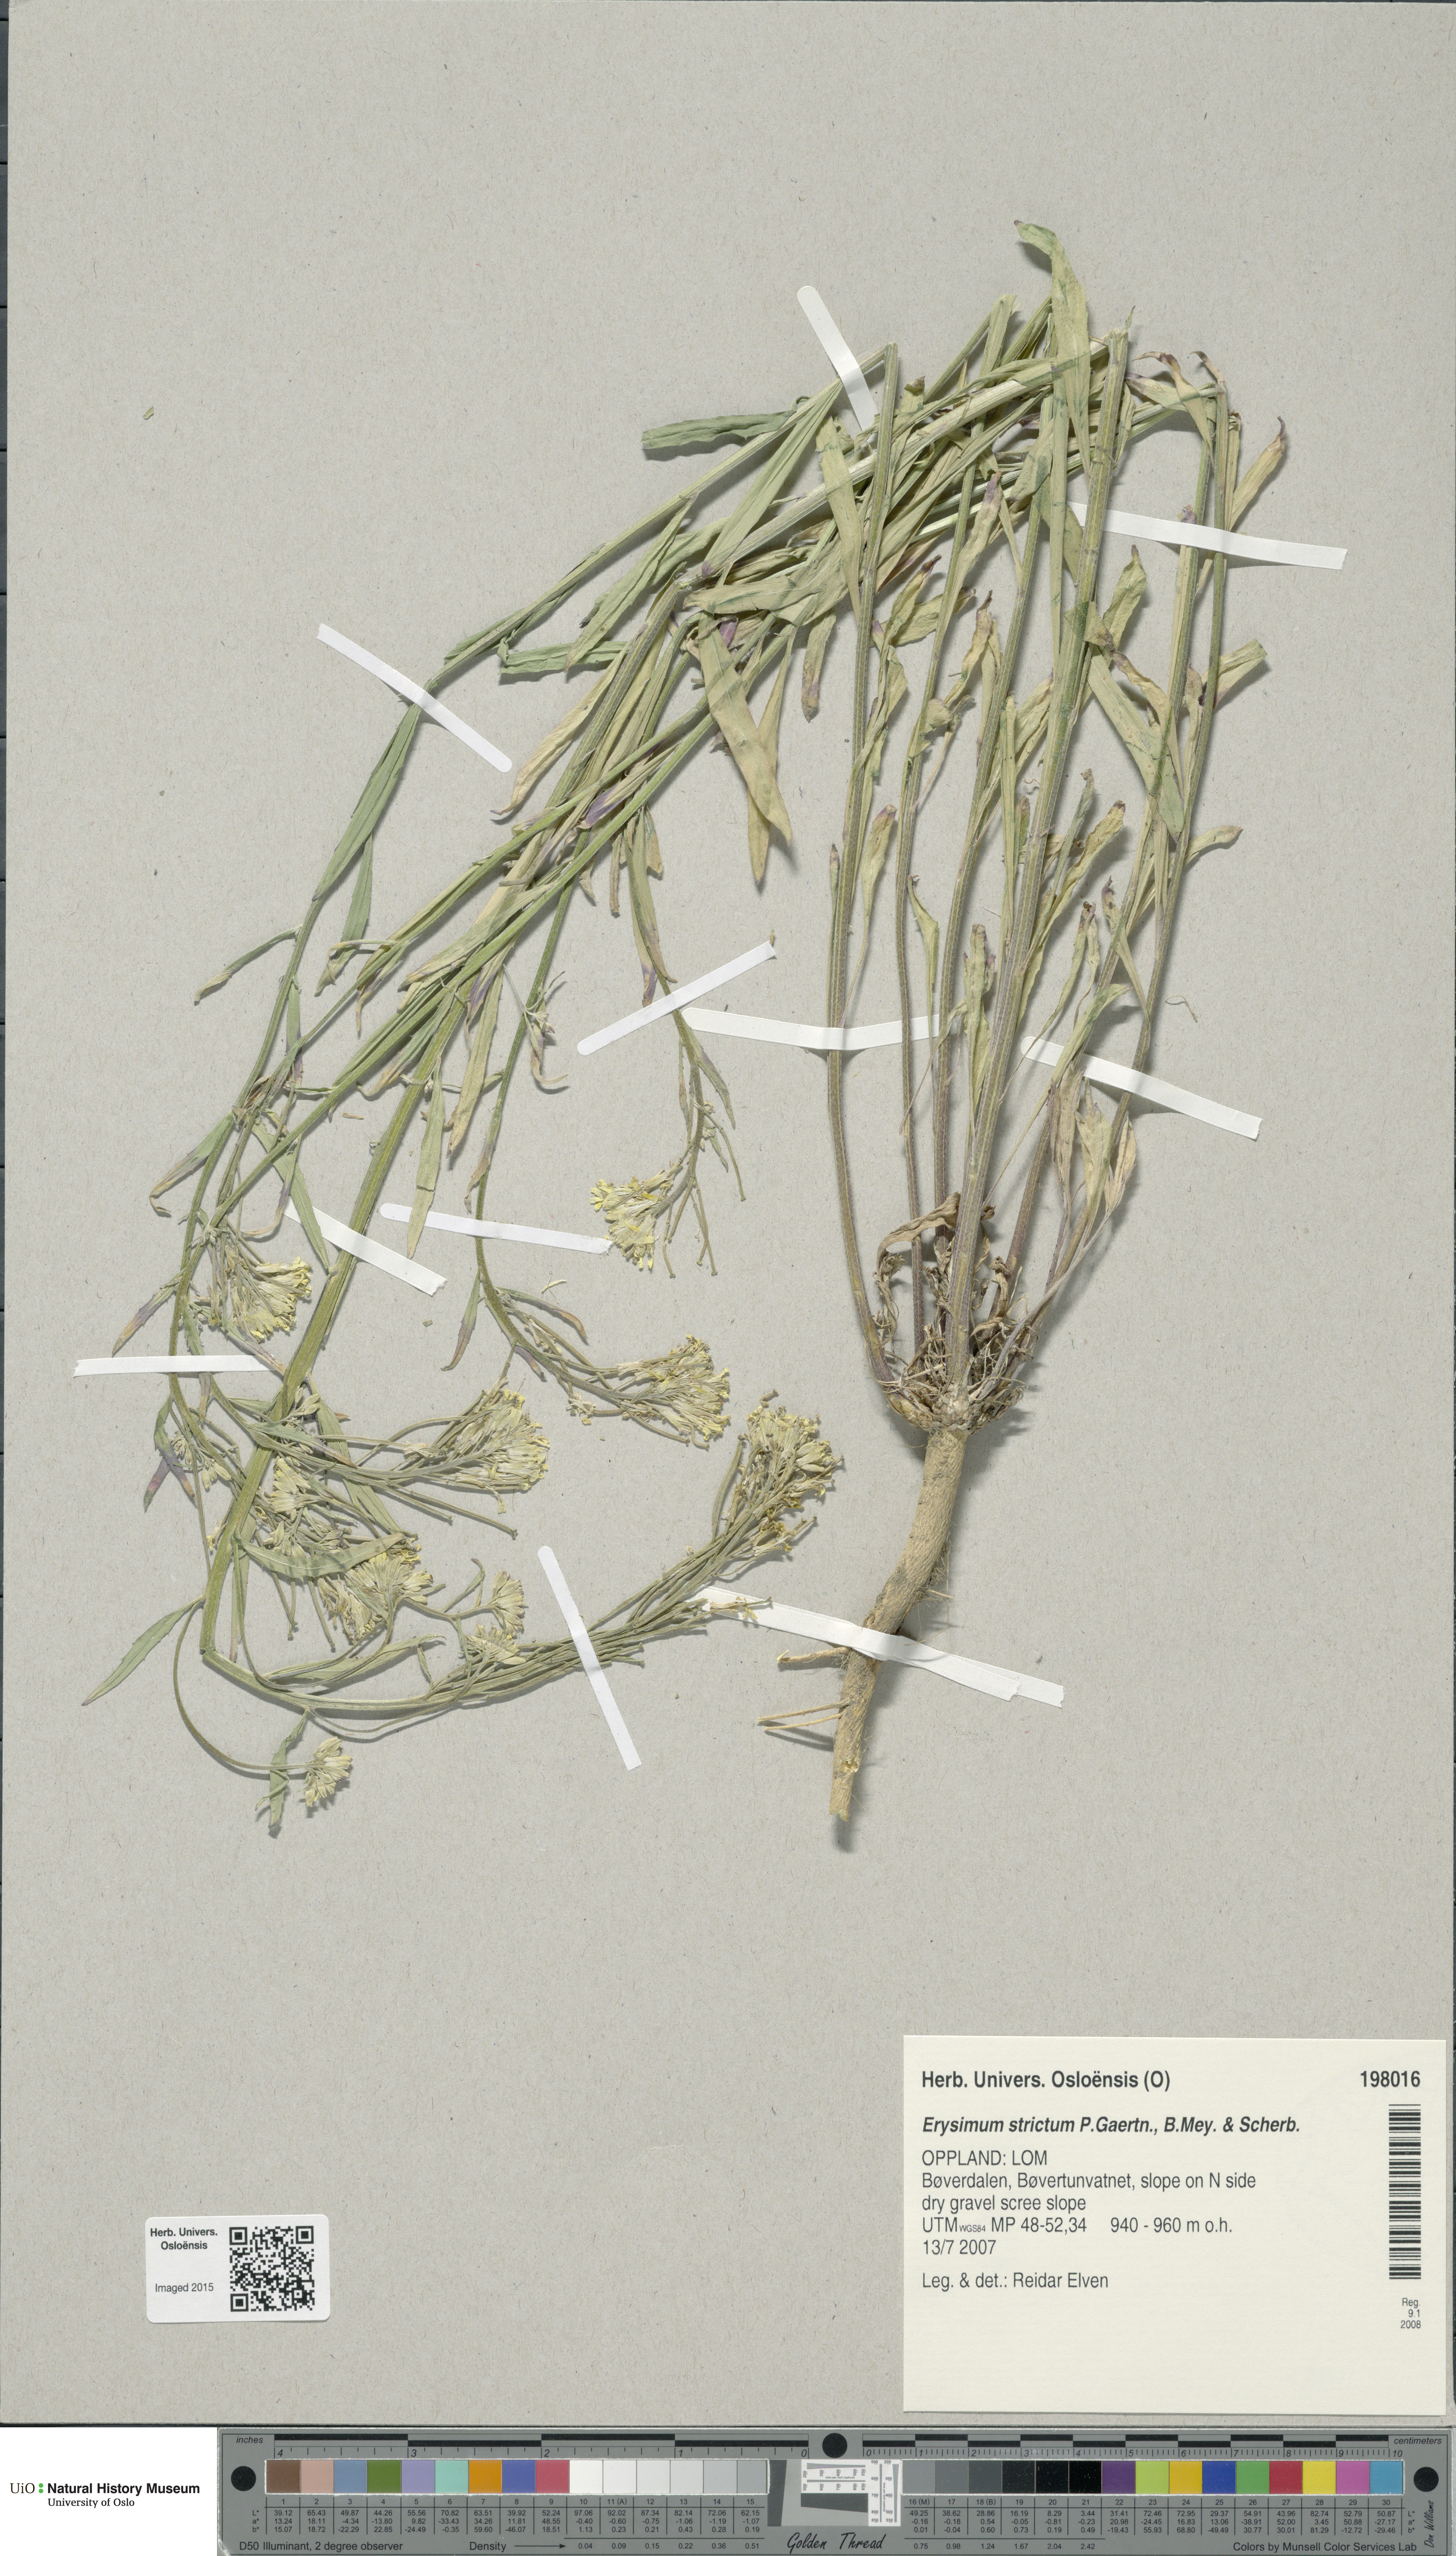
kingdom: Plantae
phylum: Tracheophyta
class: Magnoliopsida
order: Brassicales
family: Brassicaceae
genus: Erysimum
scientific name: Erysimum virgatum
